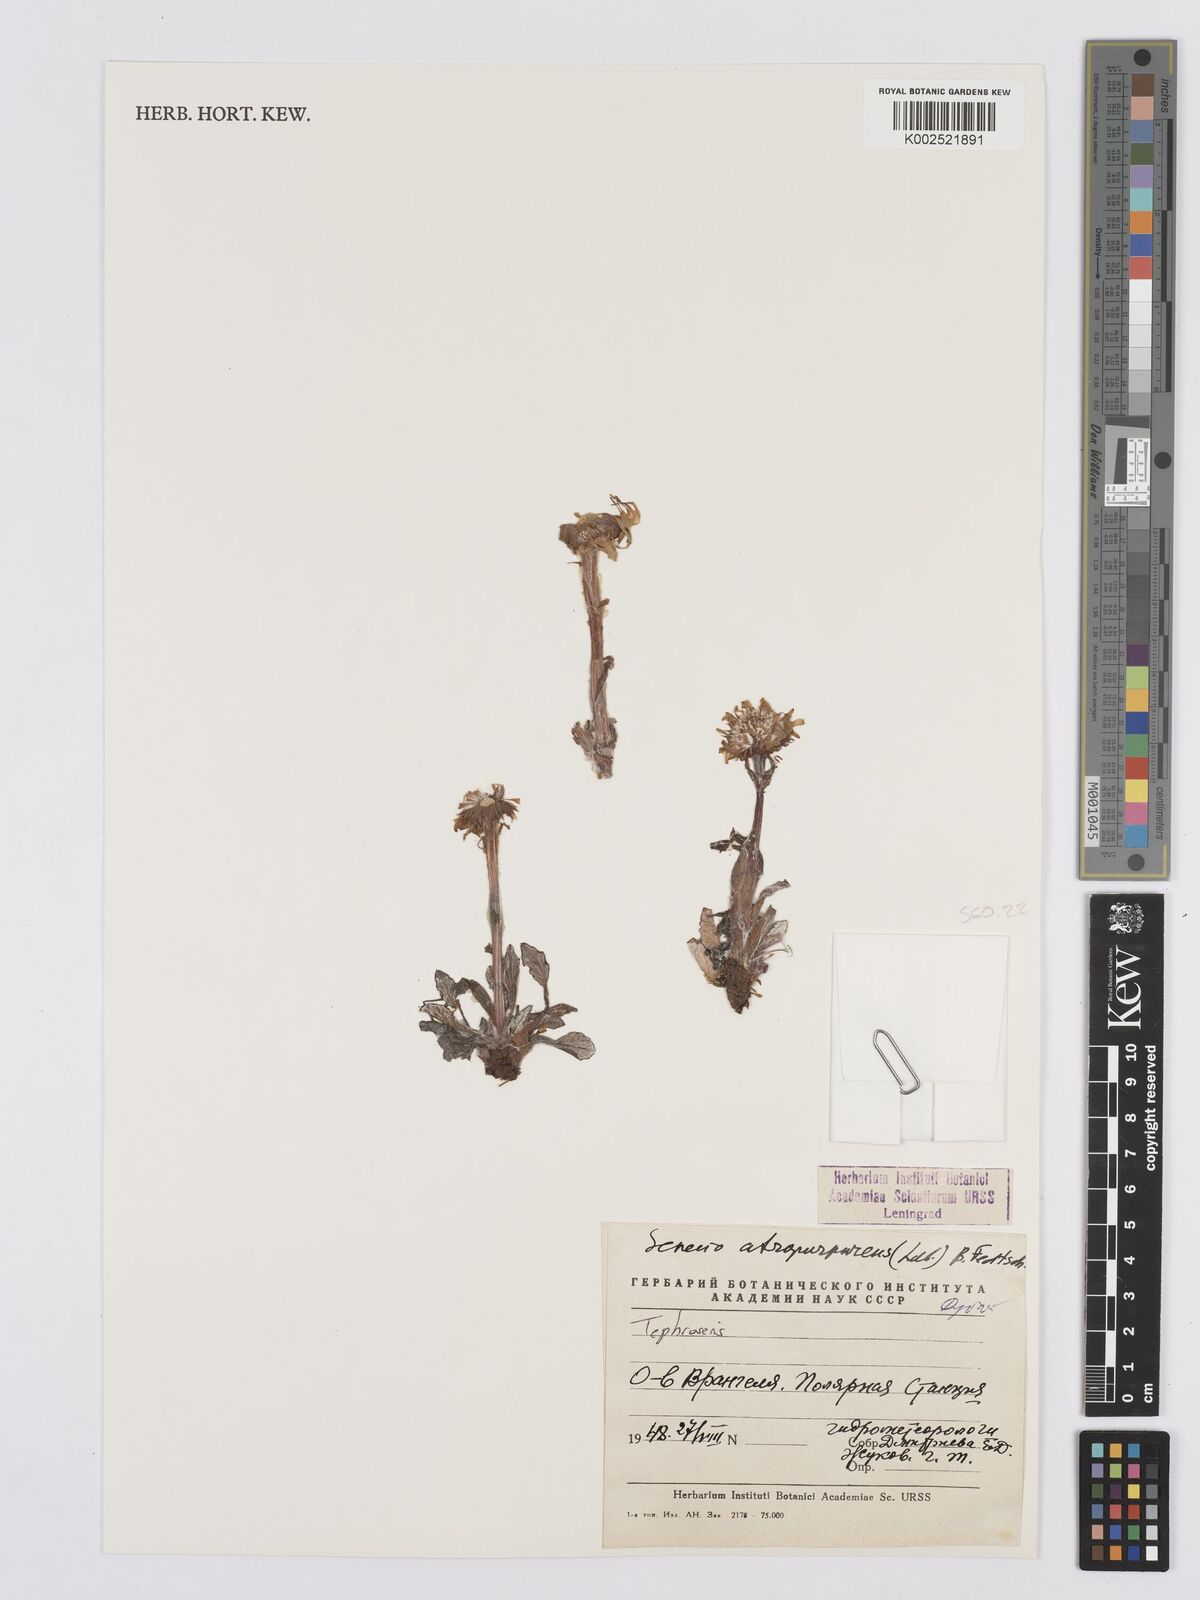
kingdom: Plantae
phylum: Tracheophyta
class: Magnoliopsida
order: Asterales
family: Asteraceae
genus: Tephroseris
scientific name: Tephroseris integrifolia
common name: Field fleawort
